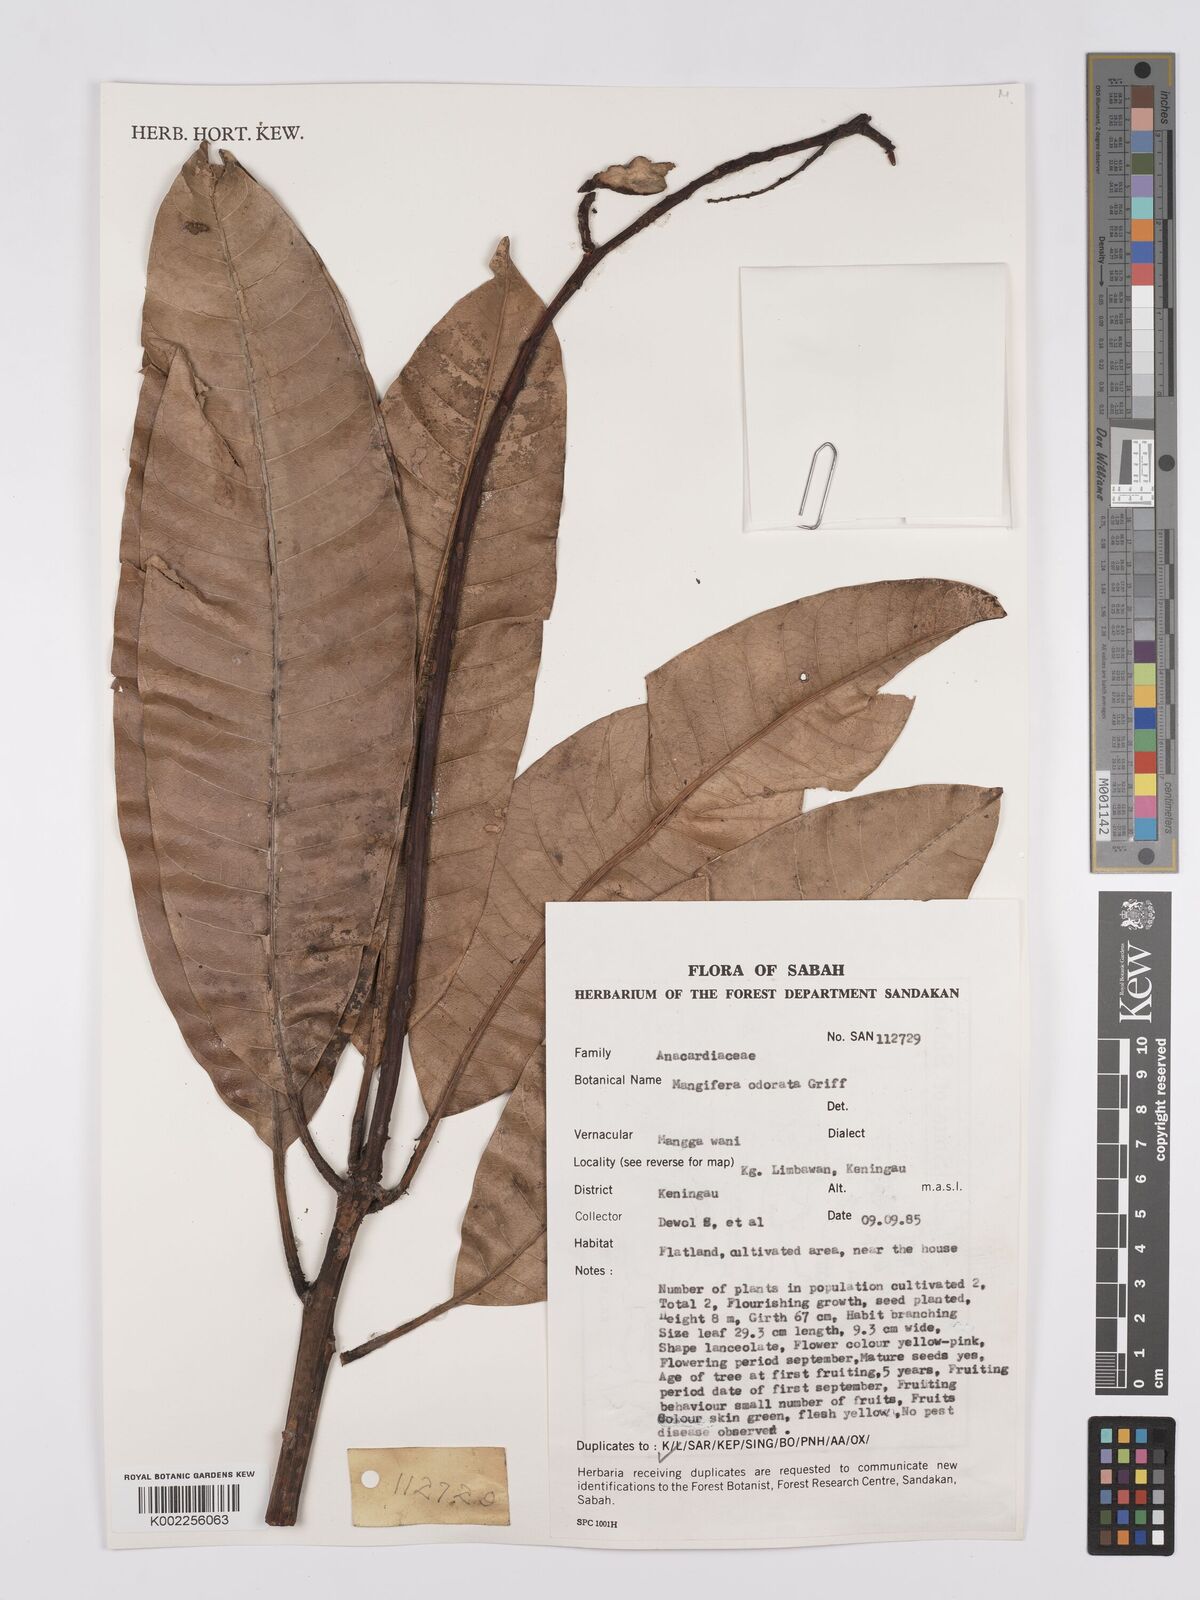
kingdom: Plantae
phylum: Tracheophyta
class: Magnoliopsida
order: Sapindales
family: Anacardiaceae
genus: Mangifera
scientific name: Mangifera odorata
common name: Saipan mango
